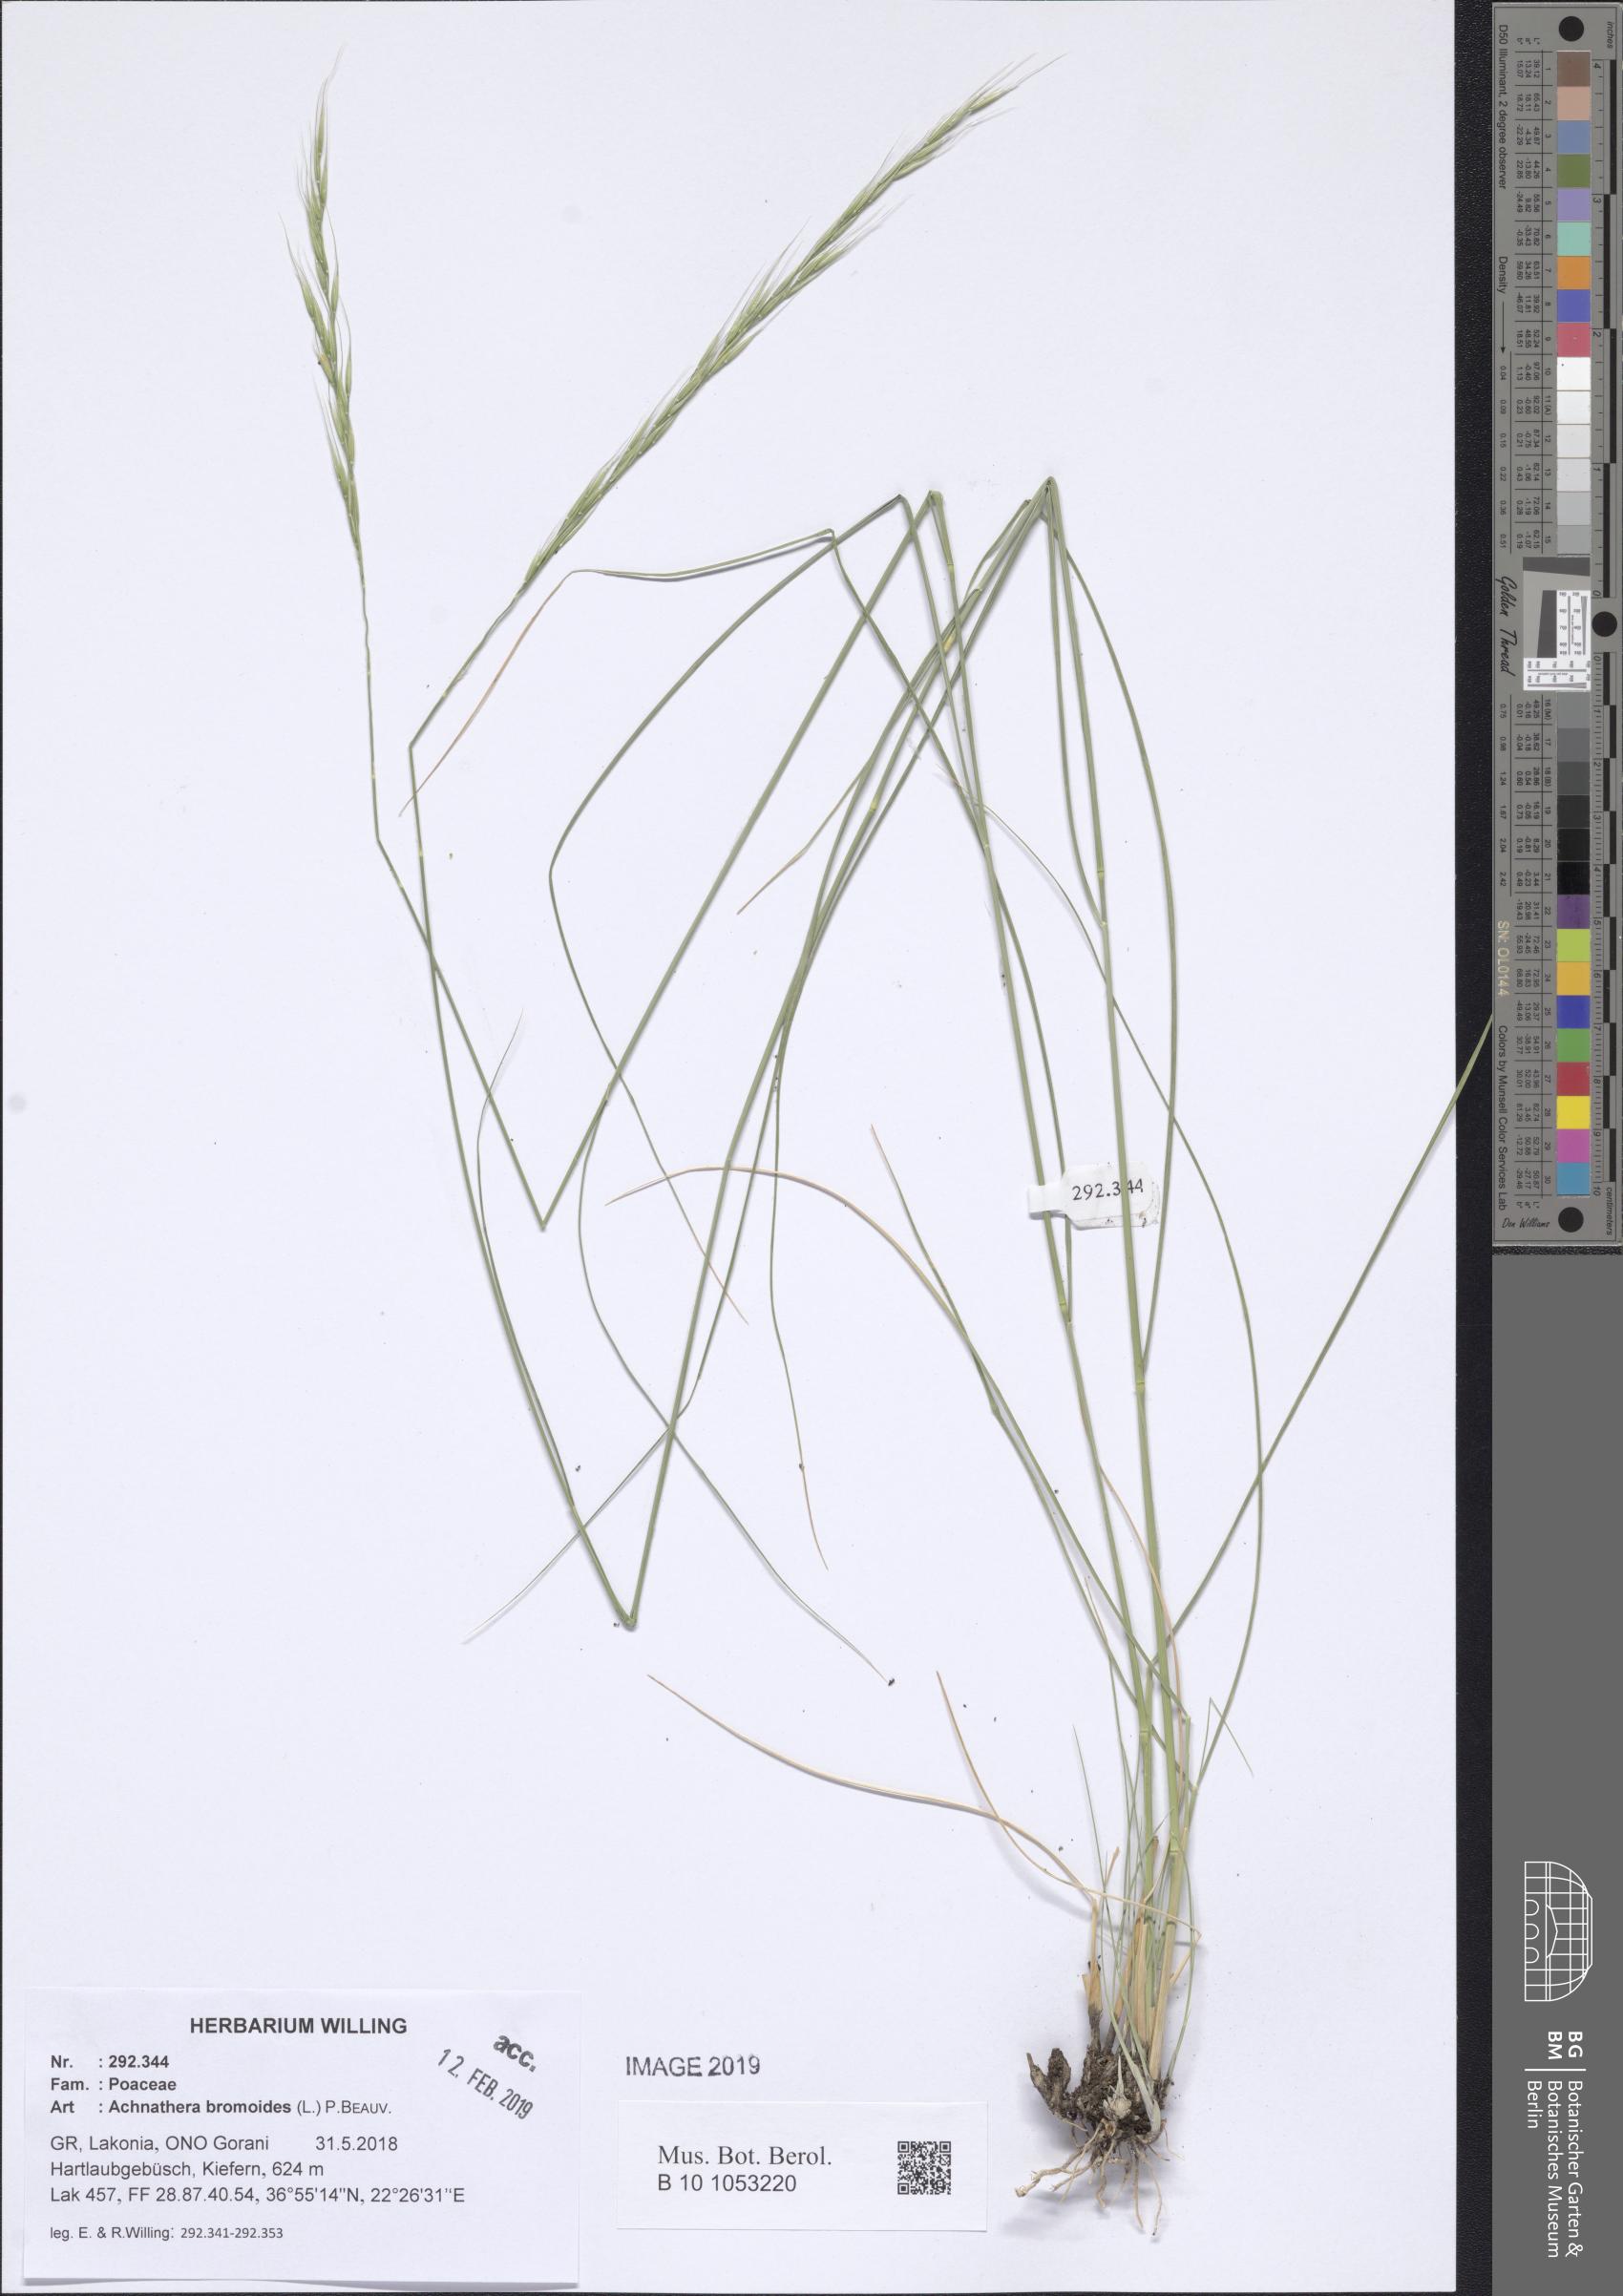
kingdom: Plantae
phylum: Tracheophyta
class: Liliopsida
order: Poales
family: Poaceae
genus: Achnatherum
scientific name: Achnatherum bromoides
